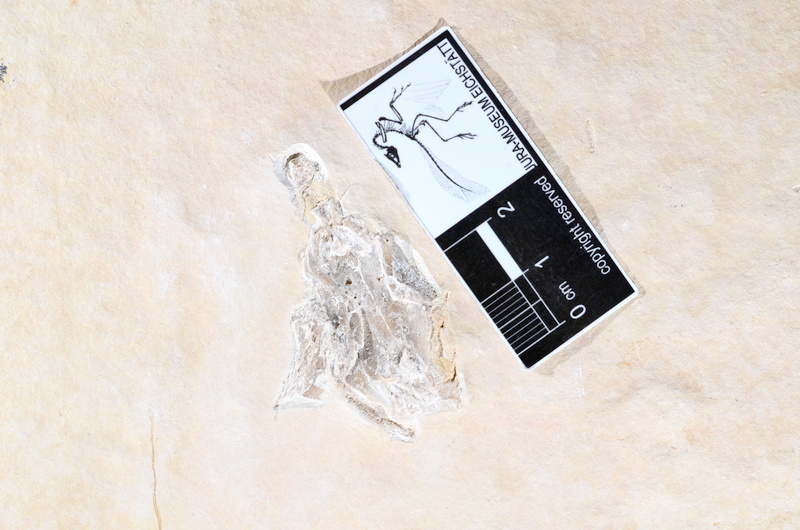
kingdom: Animalia
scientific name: Animalia
